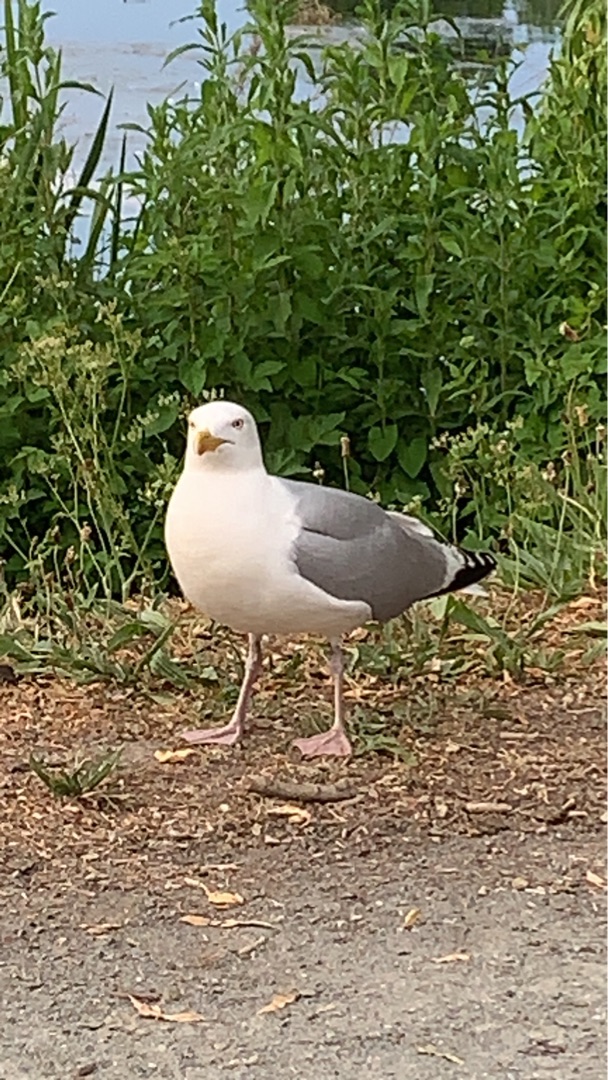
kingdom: Animalia
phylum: Chordata
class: Aves
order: Charadriiformes
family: Laridae
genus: Larus
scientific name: Larus argentatus
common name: Sølvmåge
